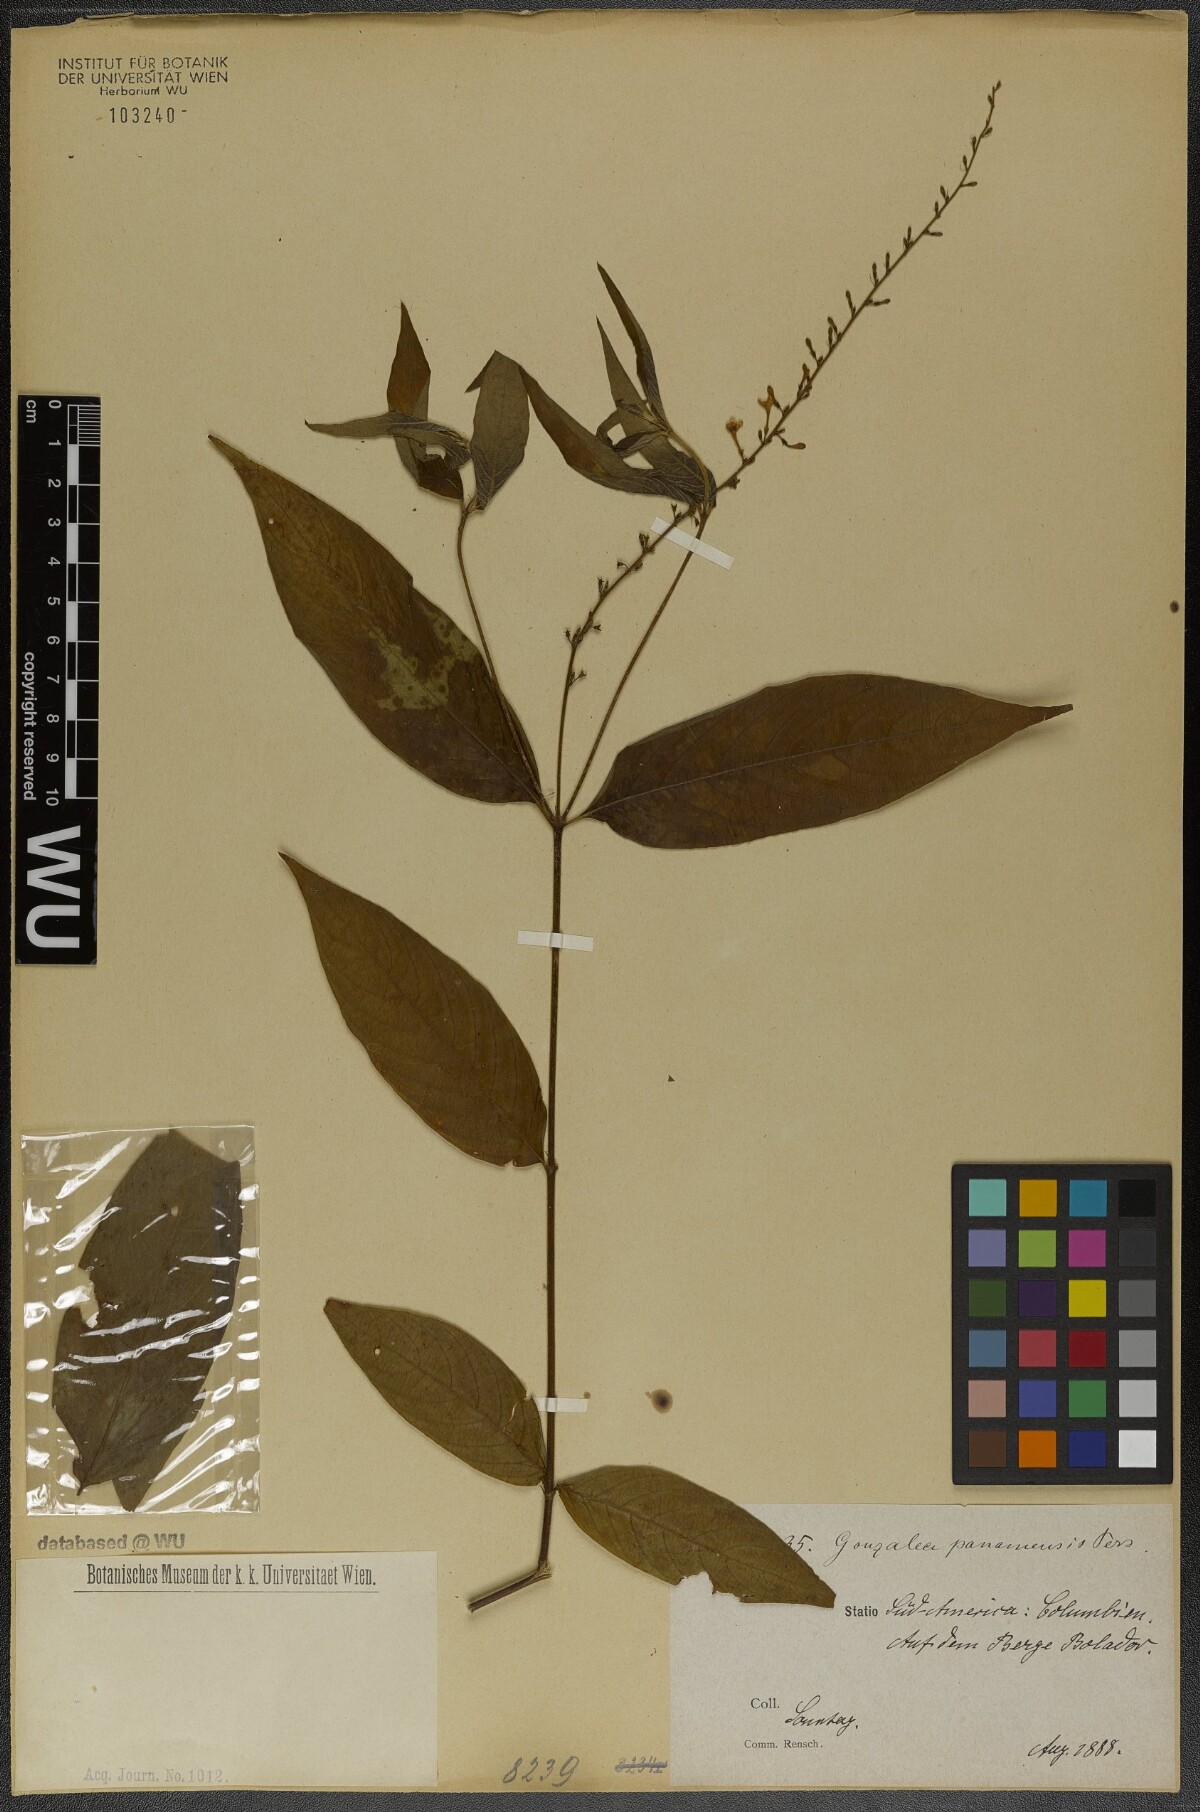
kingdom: Plantae
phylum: Tracheophyta
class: Magnoliopsida
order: Gentianales
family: Rubiaceae
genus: Gonzalagunia
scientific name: Gonzalagunia panamensis
